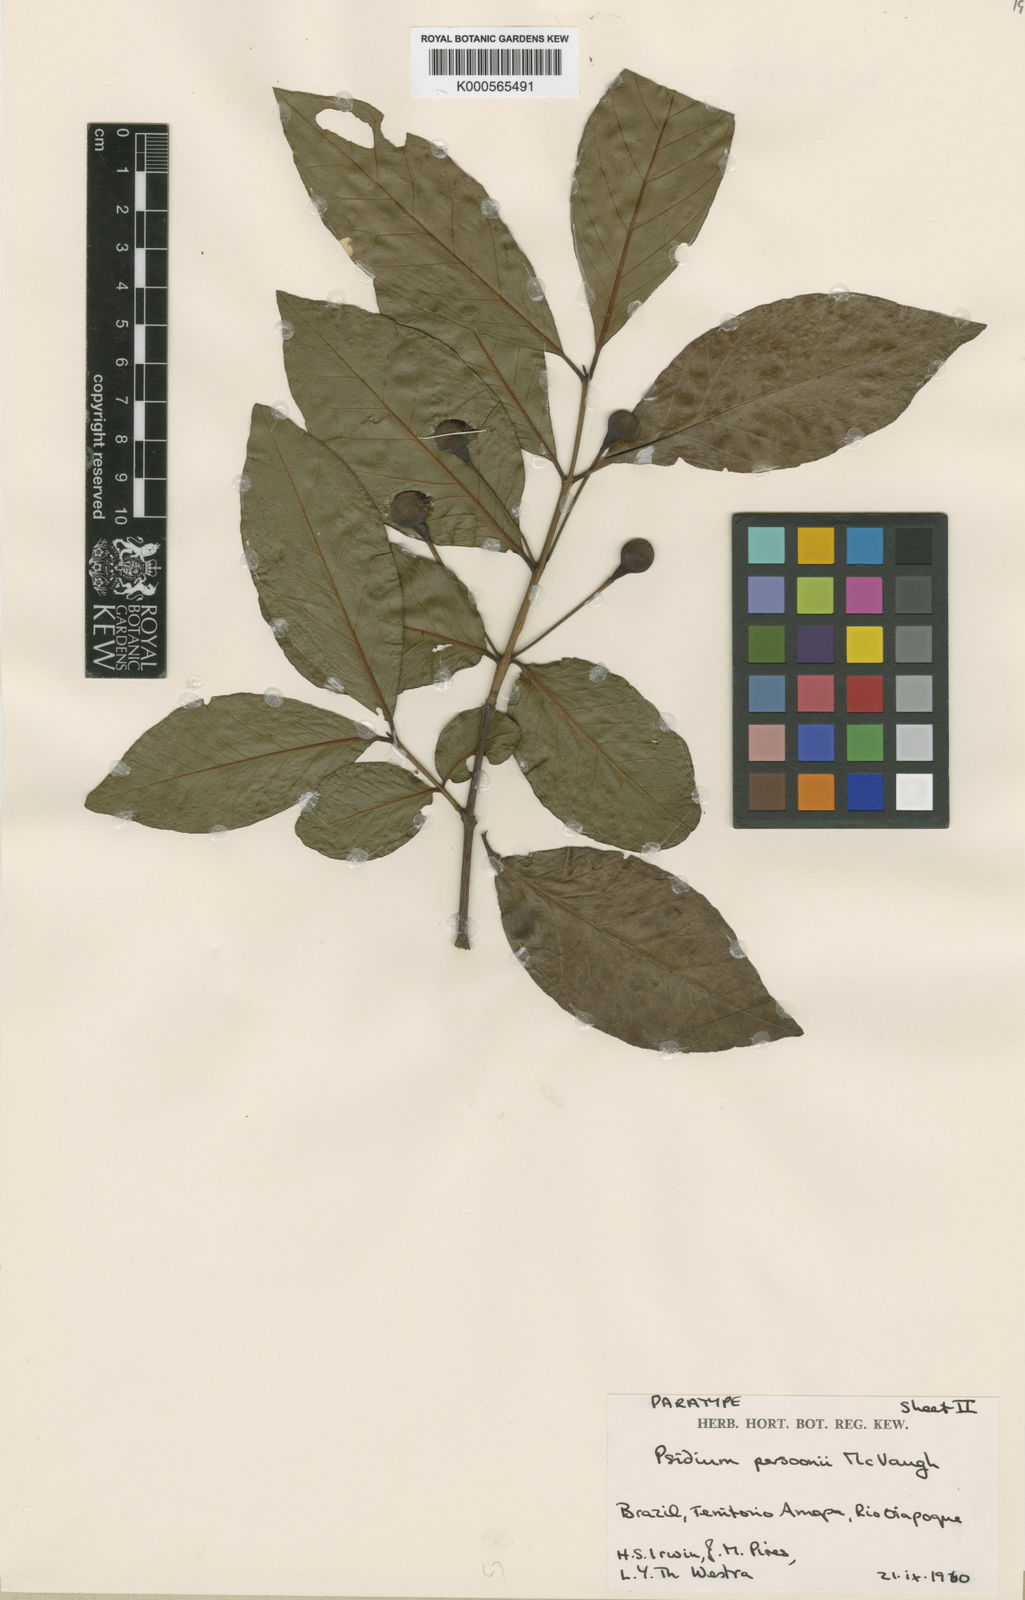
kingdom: Plantae
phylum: Tracheophyta
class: Magnoliopsida
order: Myrtales
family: Myrtaceae
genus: Psidium
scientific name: Psidium acutangulum
